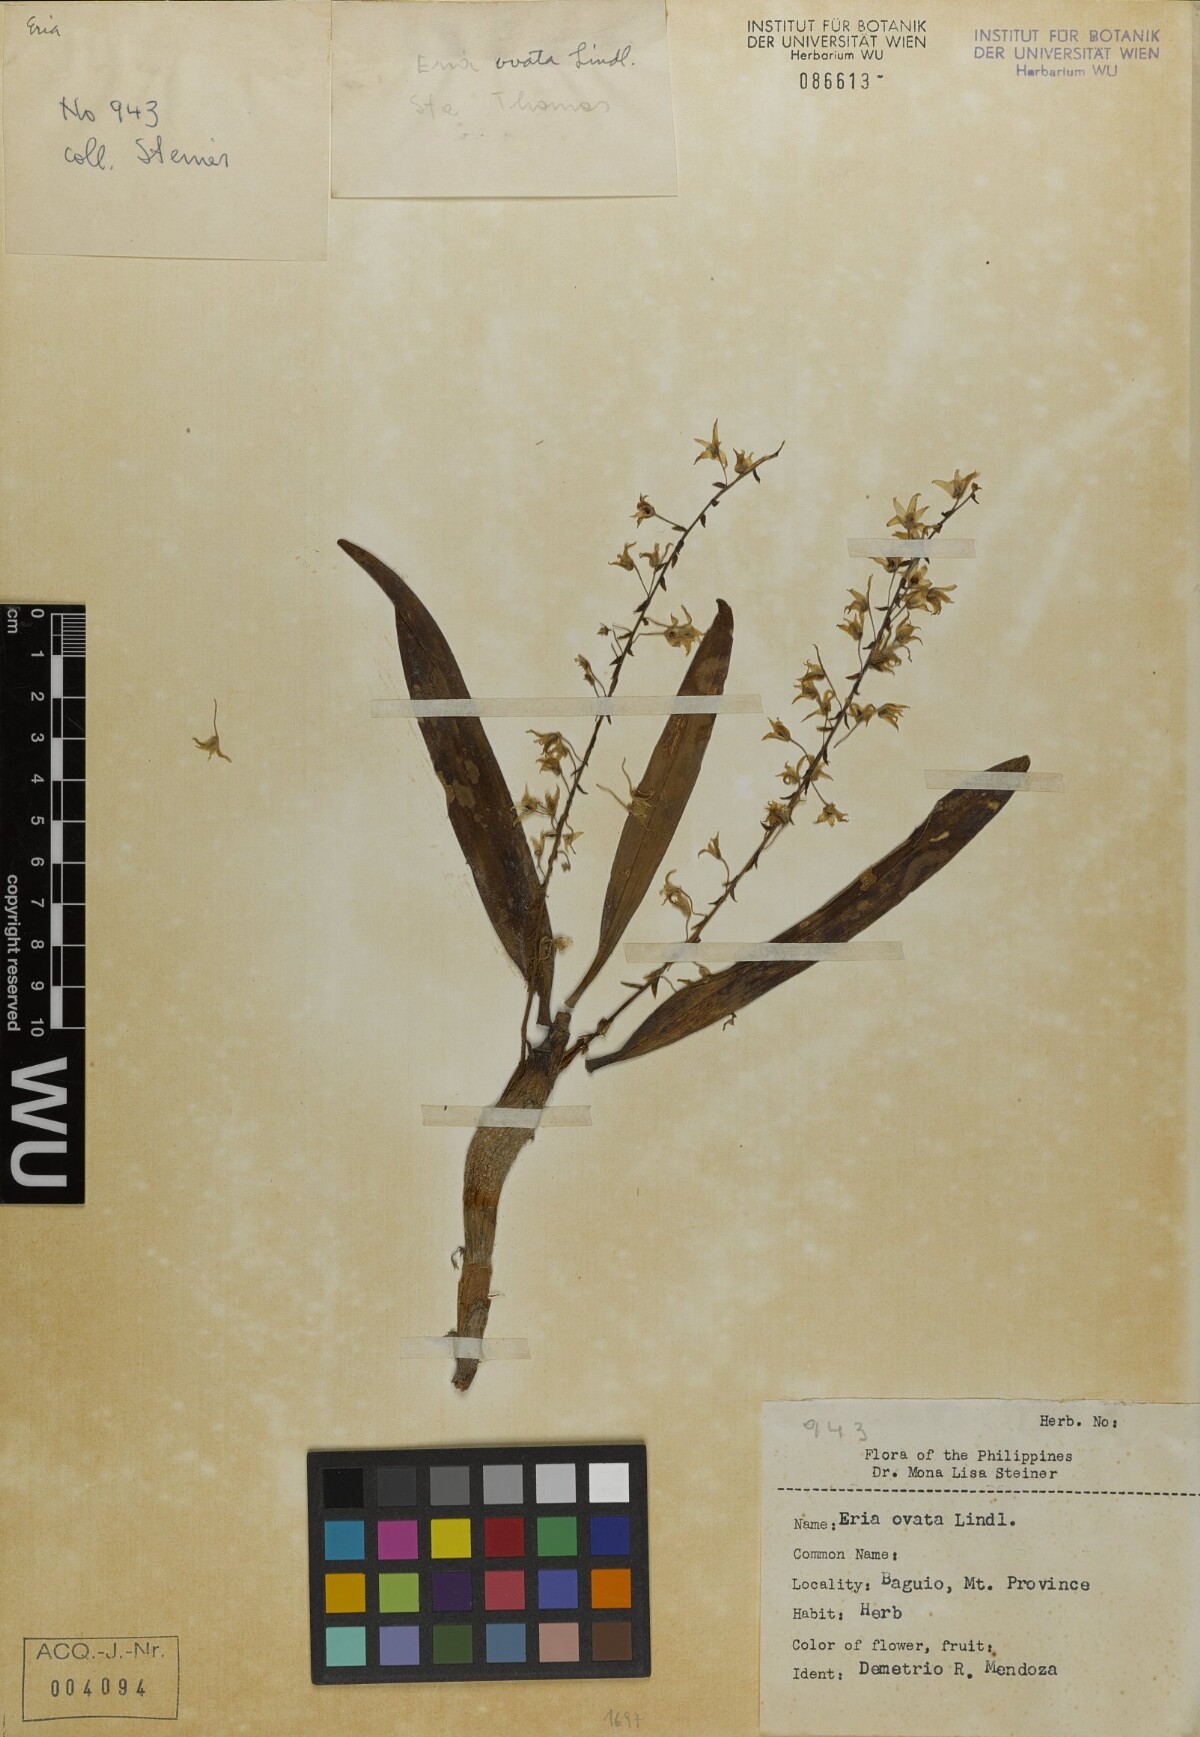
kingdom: Plantae
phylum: Tracheophyta
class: Liliopsida
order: Asparagales
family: Orchidaceae
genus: Pinalia
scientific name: Pinalia ovata
